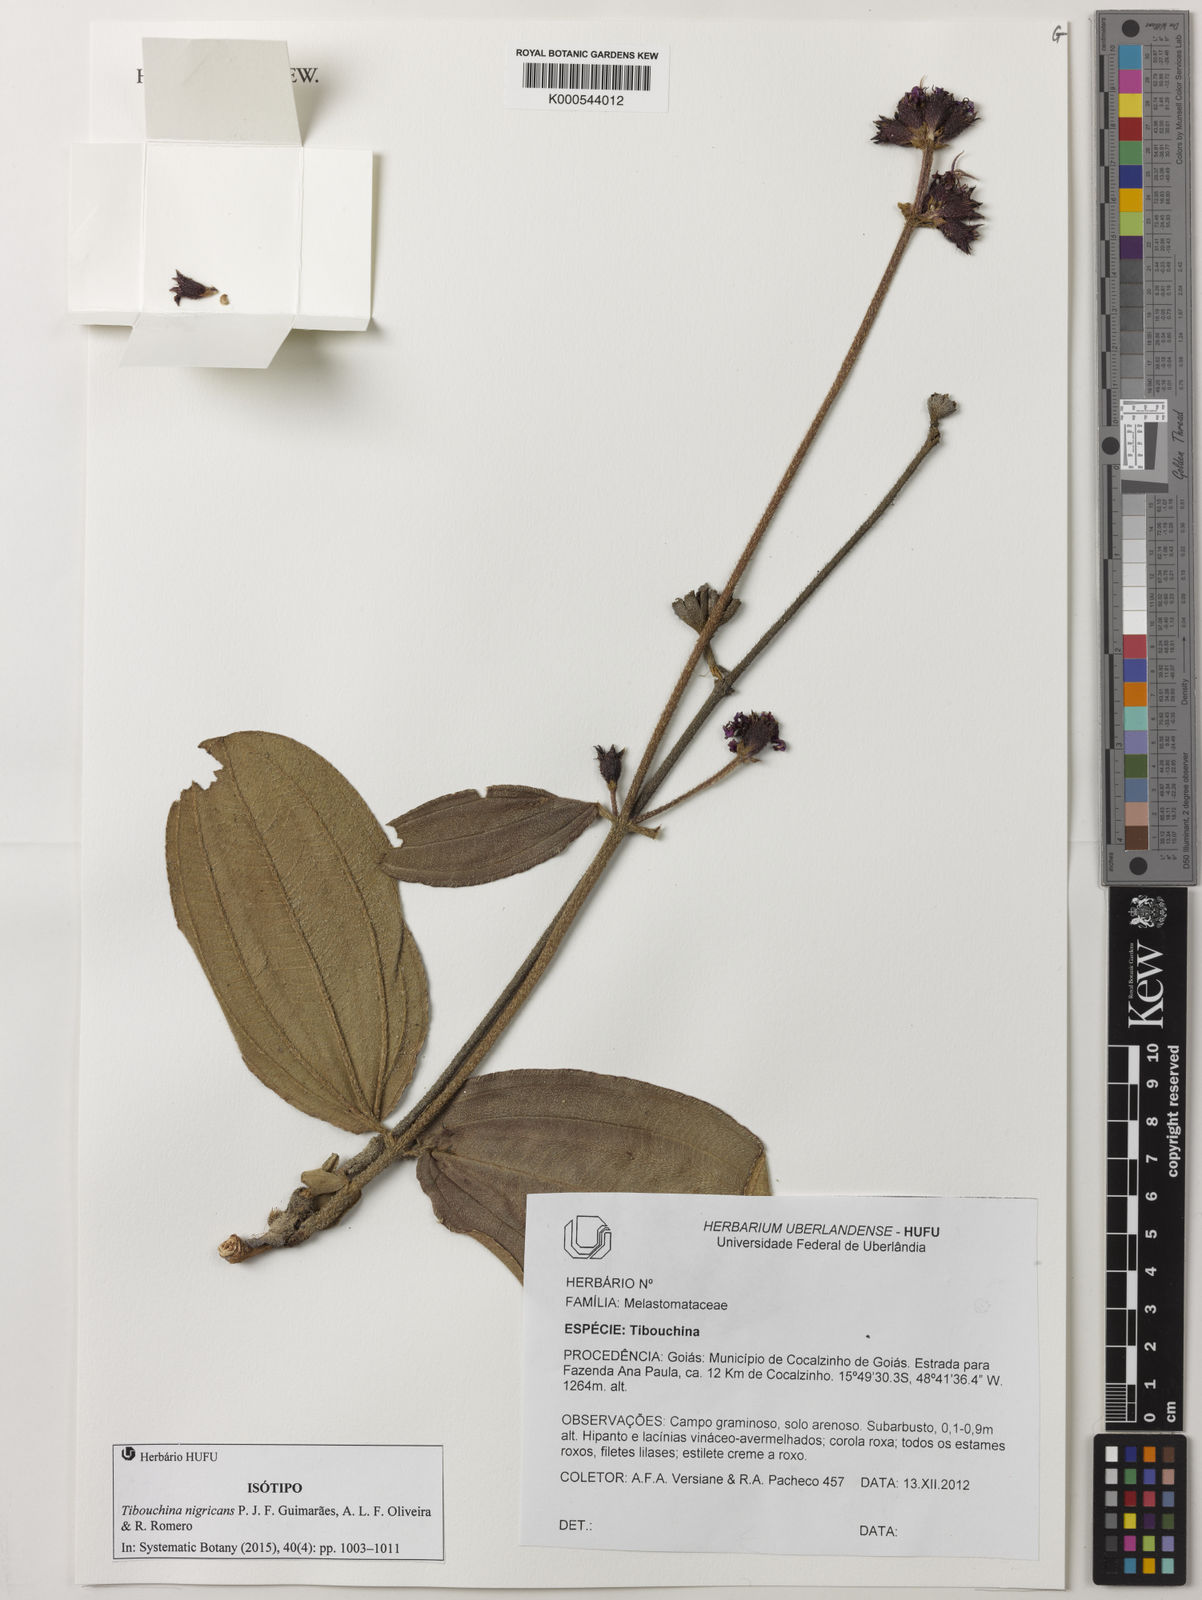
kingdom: Plantae
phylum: Tracheophyta
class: Magnoliopsida
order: Myrtales
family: Melastomataceae
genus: Tibouchina
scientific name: Tibouchina nigricans
